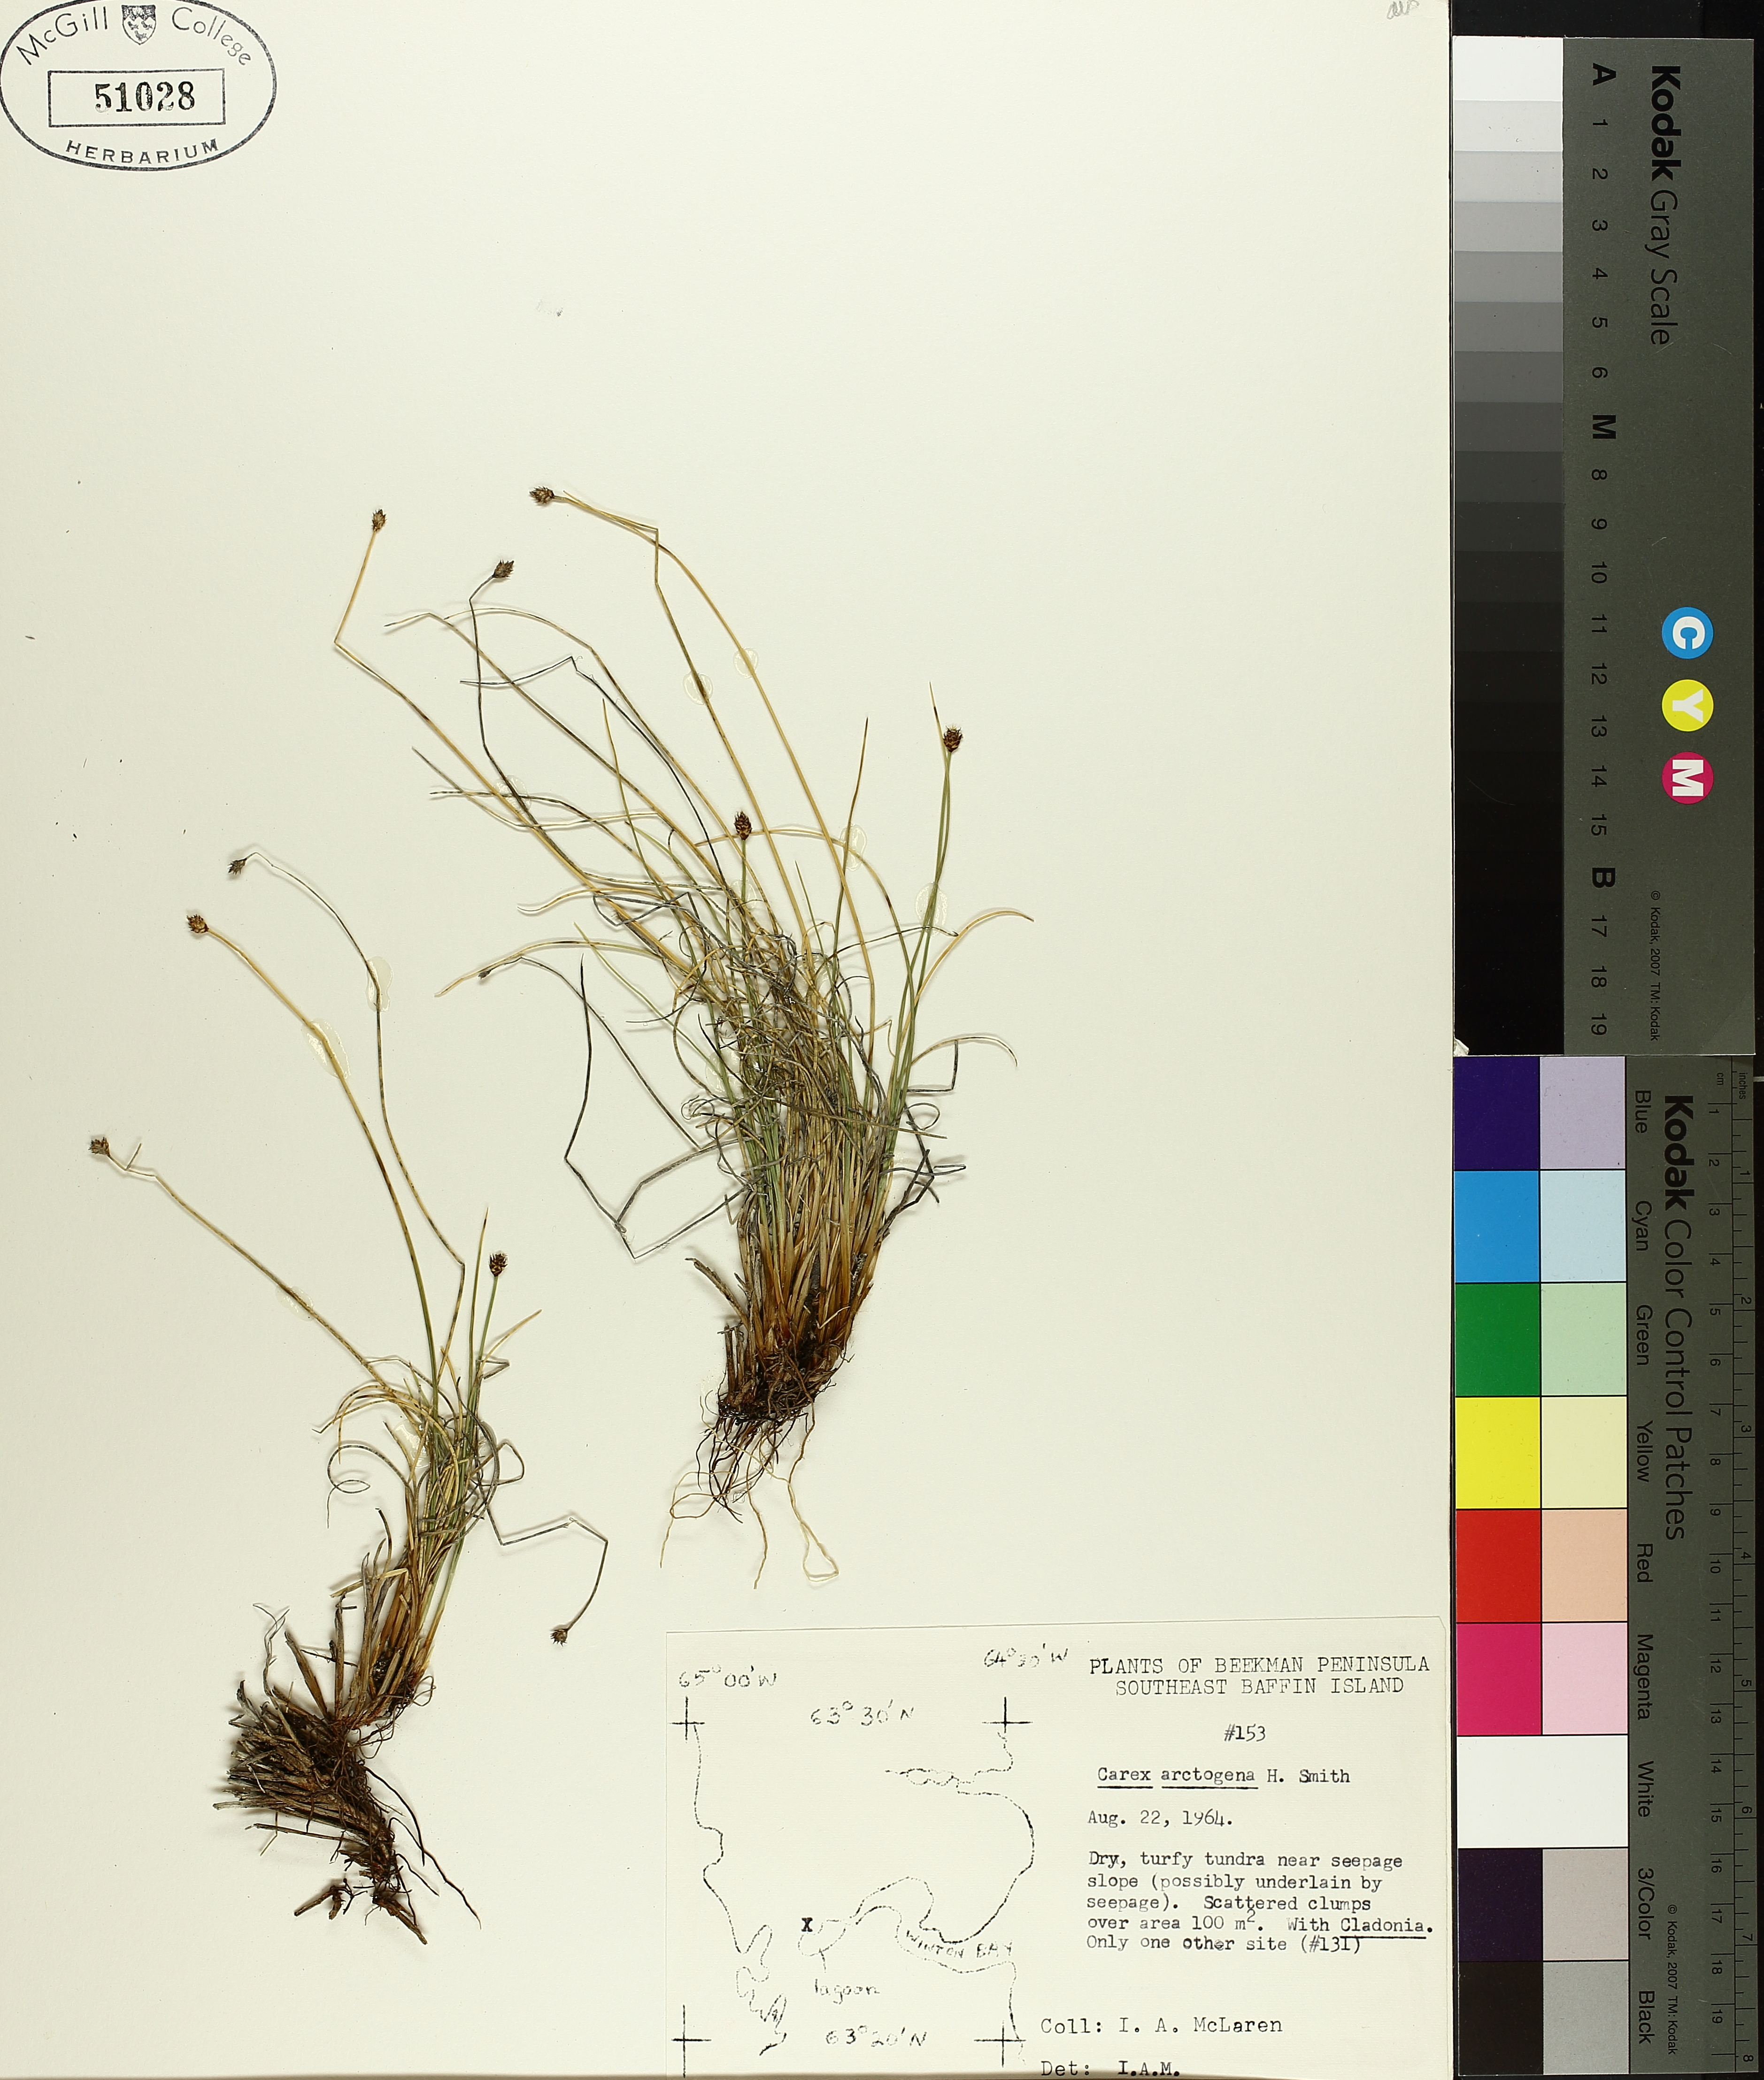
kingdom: Plantae
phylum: Tracheophyta
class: Liliopsida
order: Poales
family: Cyperaceae
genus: Carex
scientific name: Carex arctogena
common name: Black sedge
